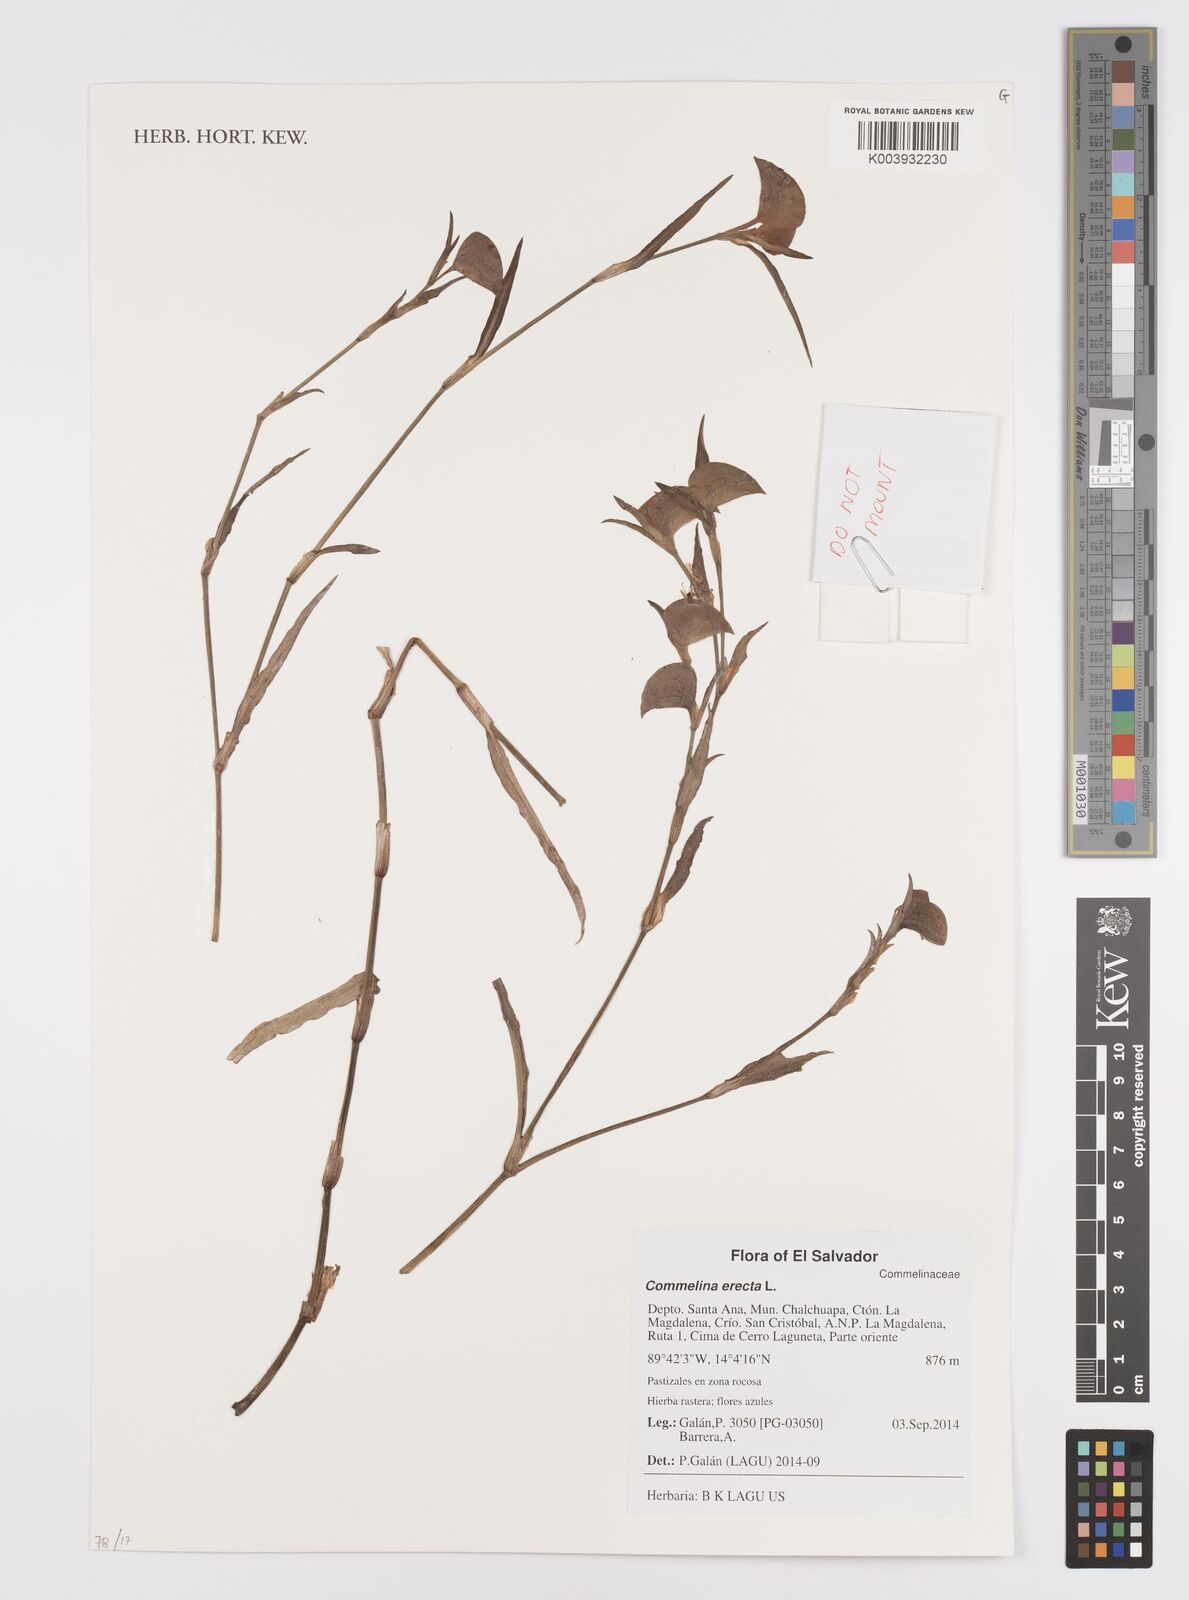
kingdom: Plantae
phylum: Tracheophyta
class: Liliopsida
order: Commelinales
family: Commelinaceae
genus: Commelina
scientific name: Commelina erecta
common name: Blousel blommetjie
